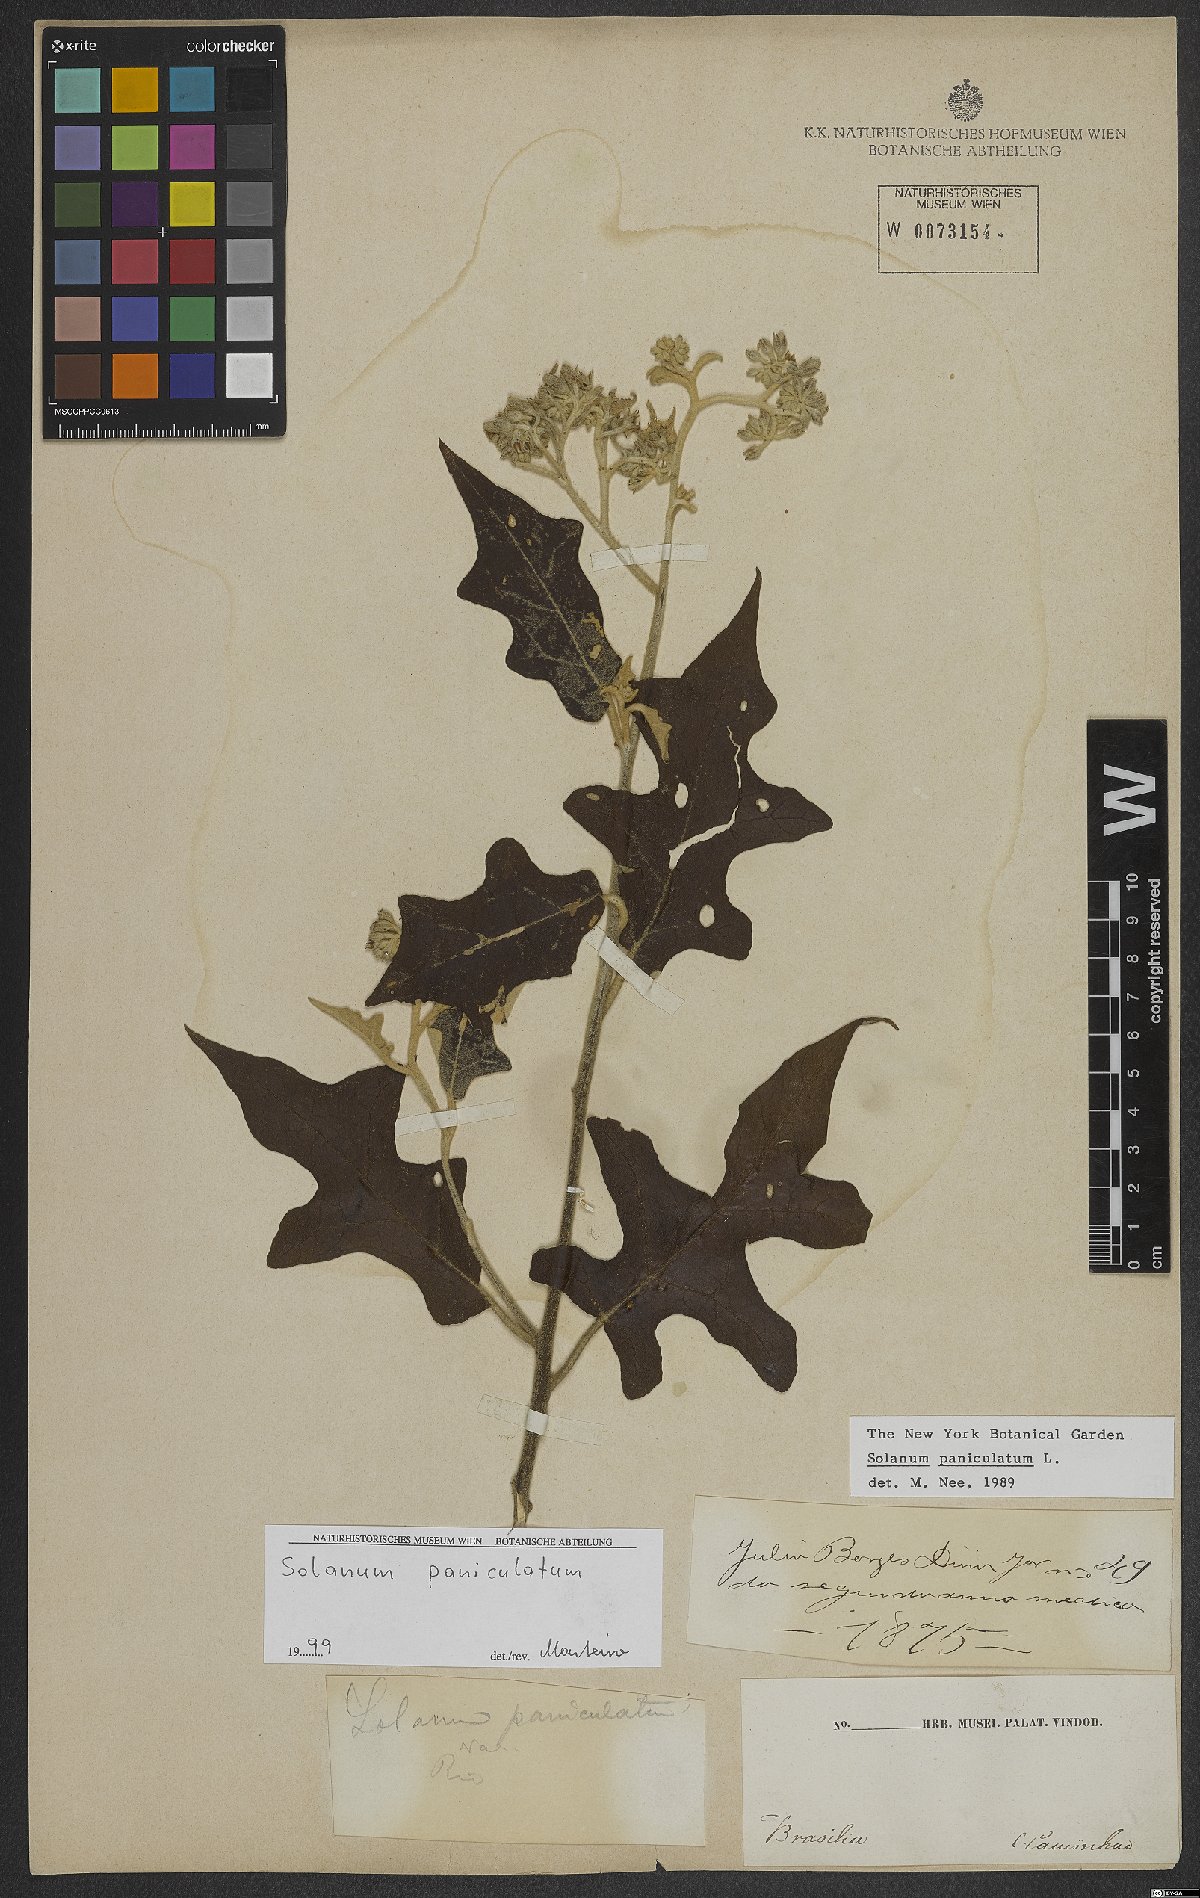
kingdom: Plantae
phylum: Tracheophyta
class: Magnoliopsida
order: Solanales
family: Solanaceae
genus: Solanum
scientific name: Solanum paniculatum
